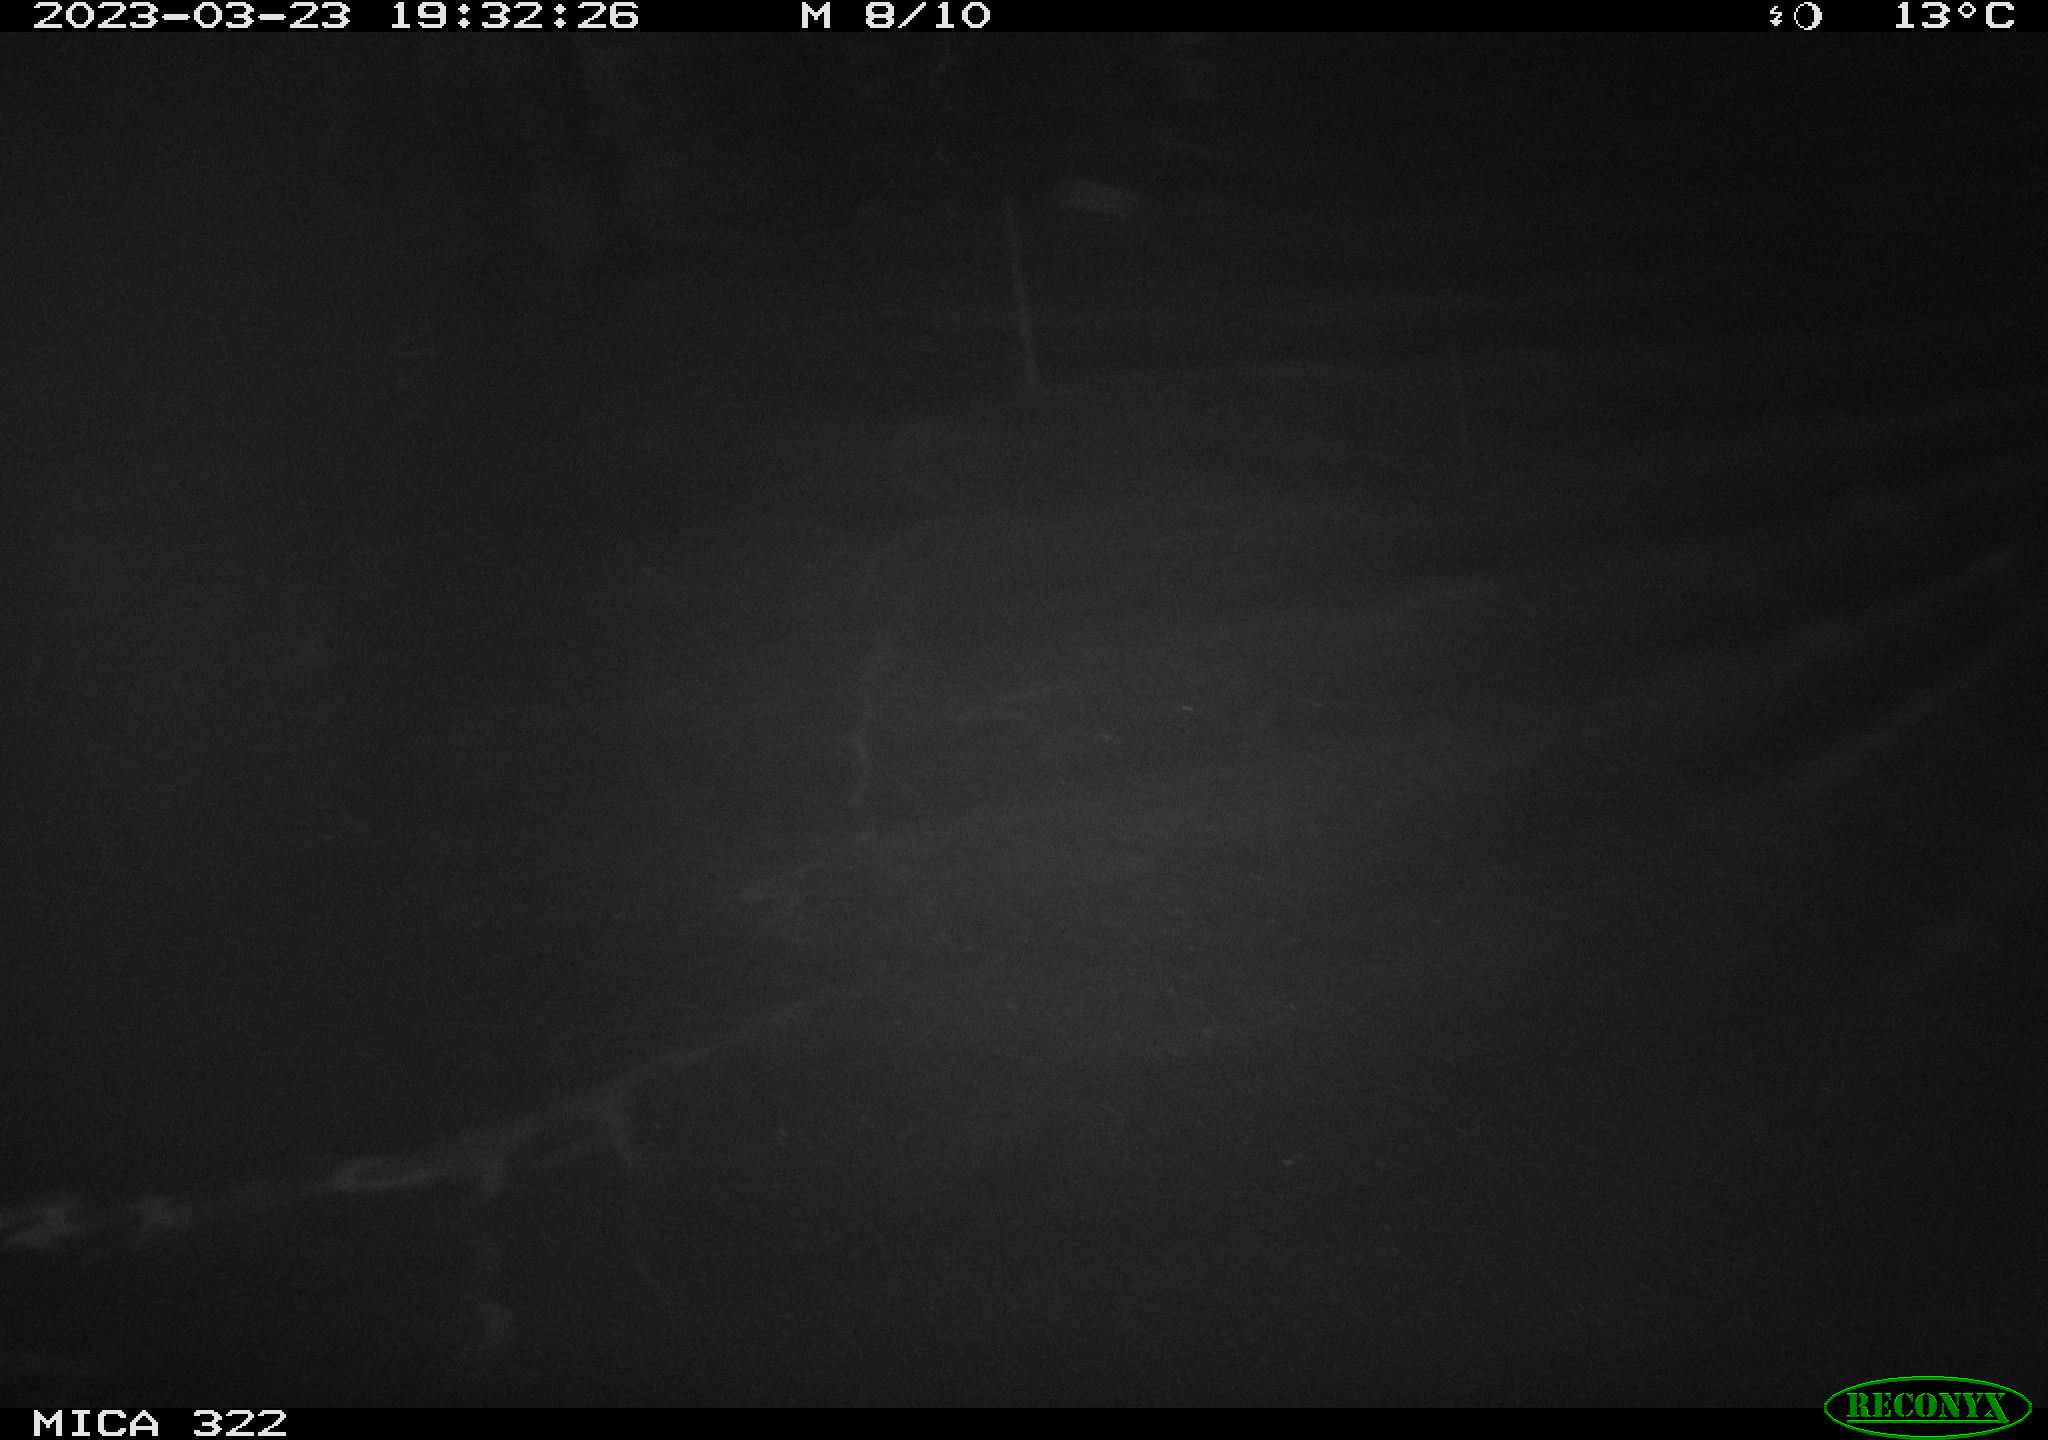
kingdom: Animalia
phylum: Chordata
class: Mammalia
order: Rodentia
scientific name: Rodentia
